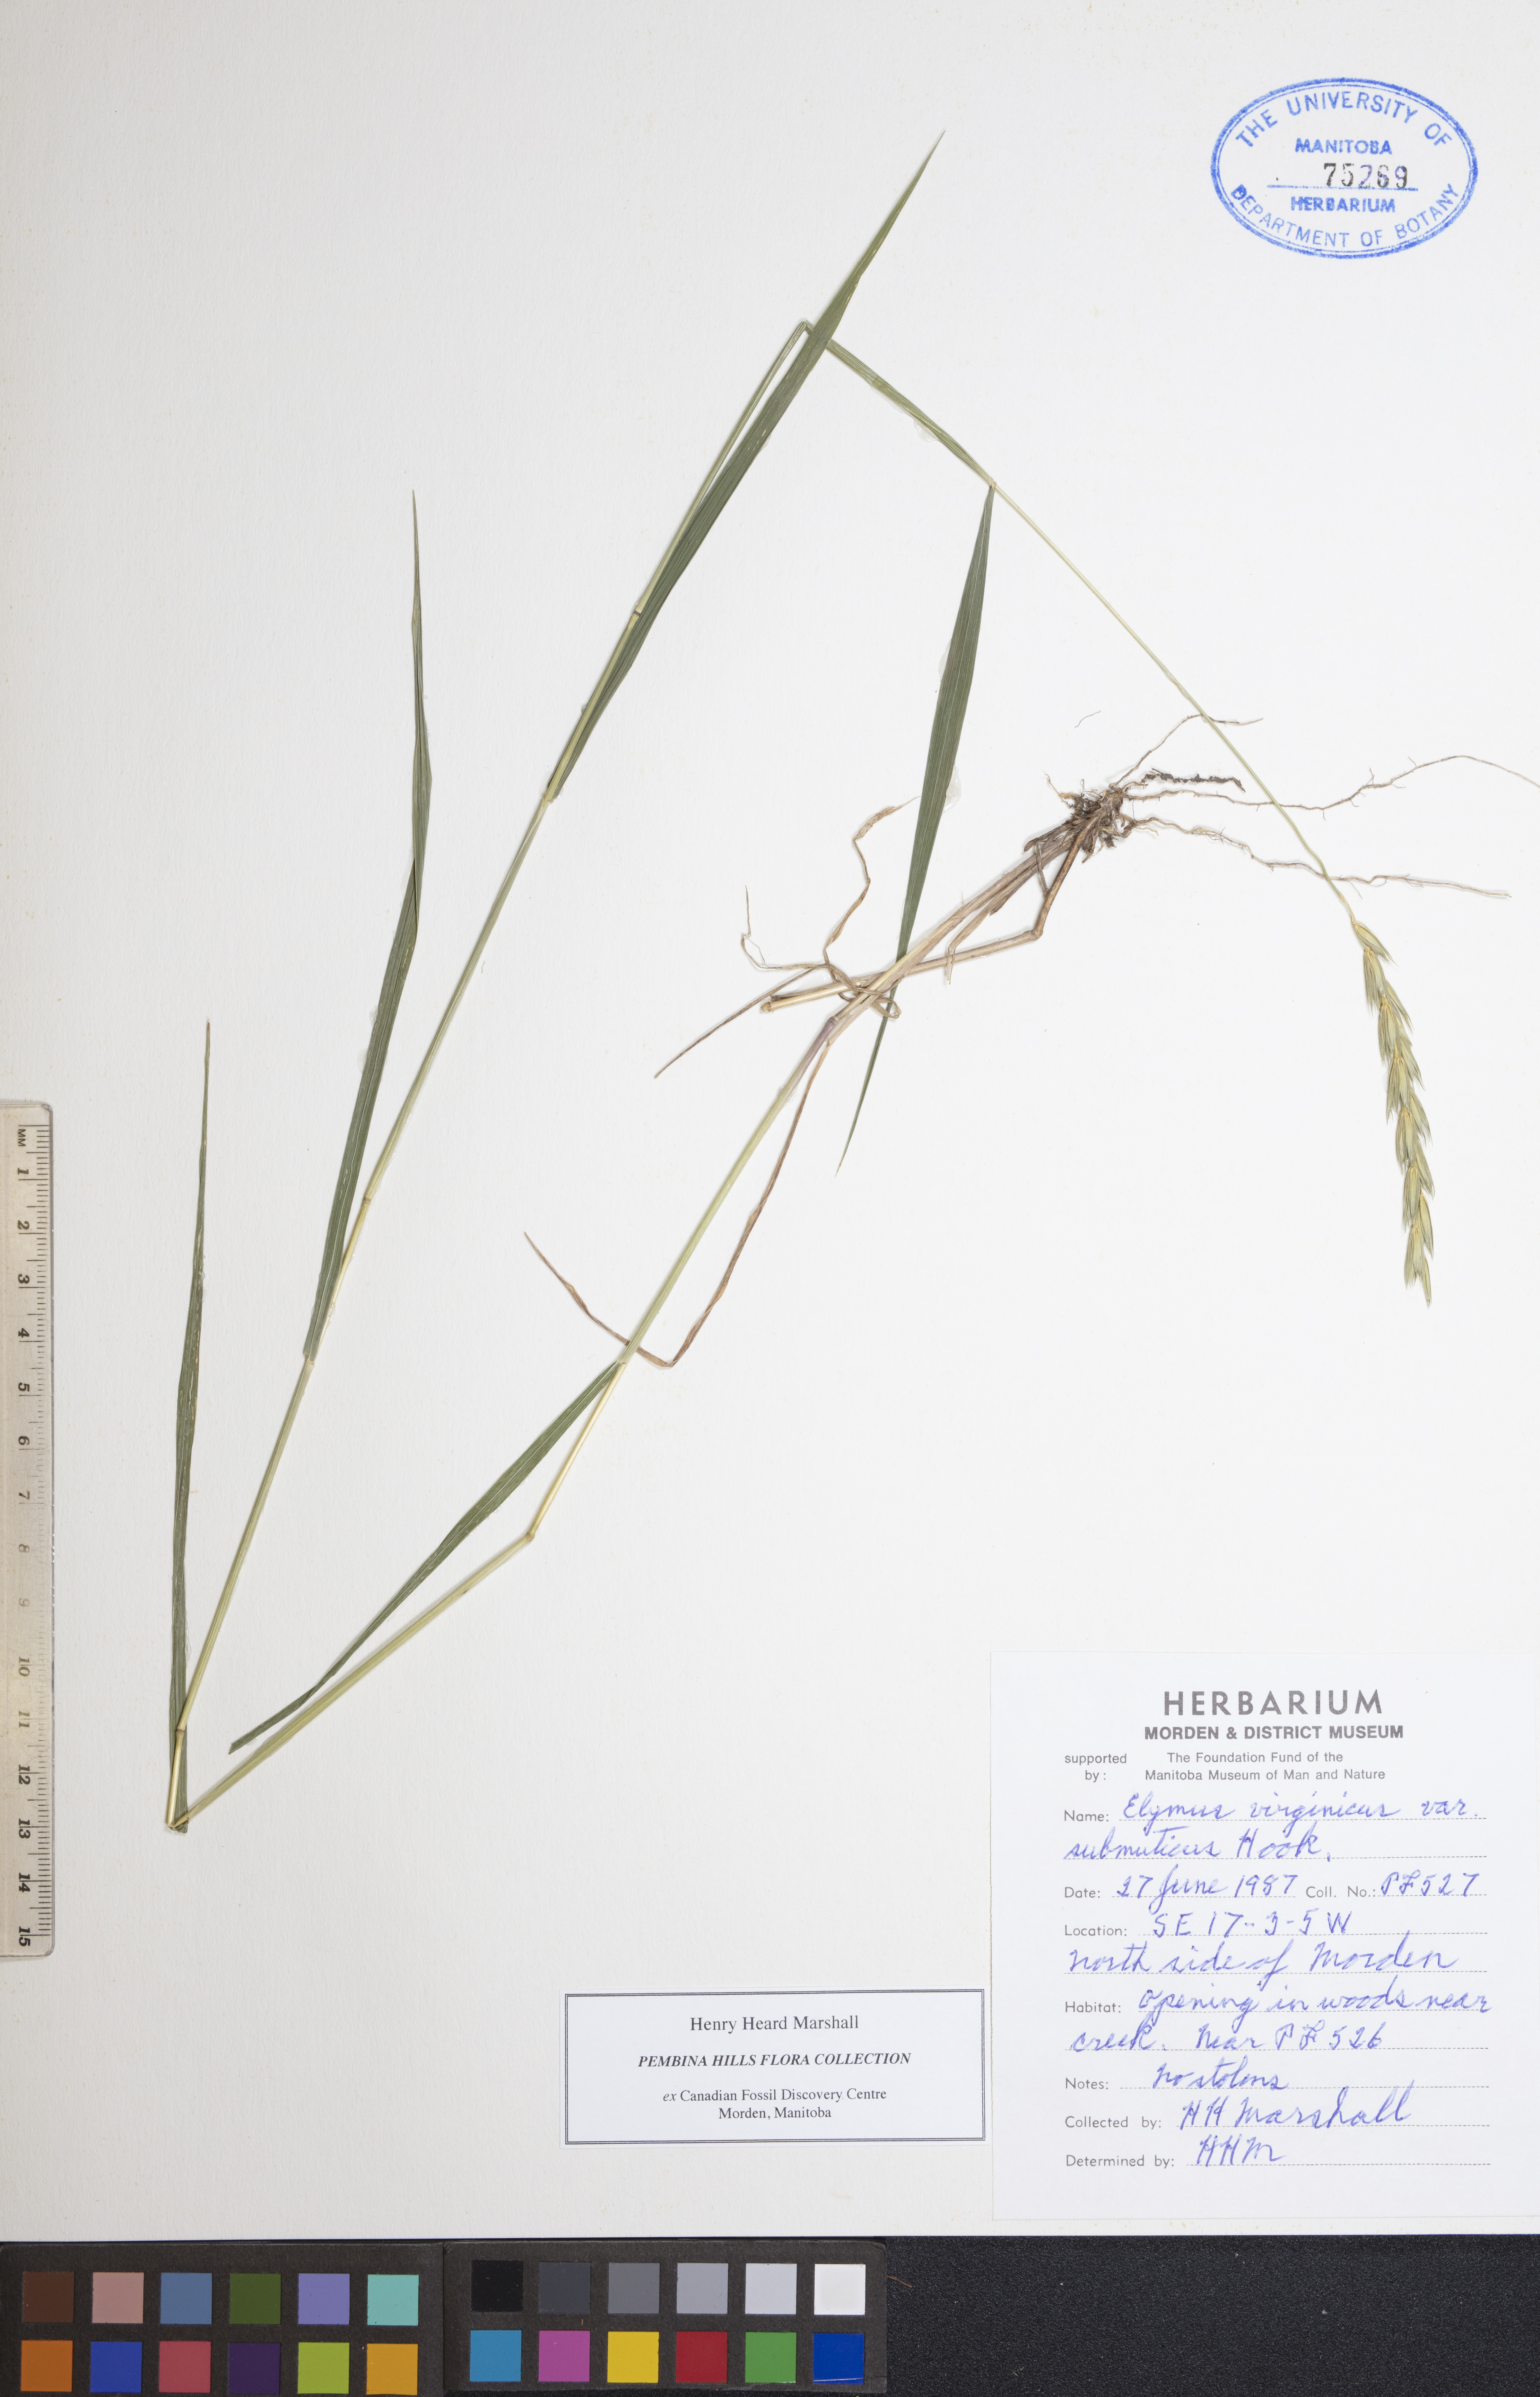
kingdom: Plantae
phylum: Tracheophyta
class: Liliopsida
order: Poales
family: Poaceae
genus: Elymus
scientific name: Elymus curvatus
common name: Awnless wild rye
